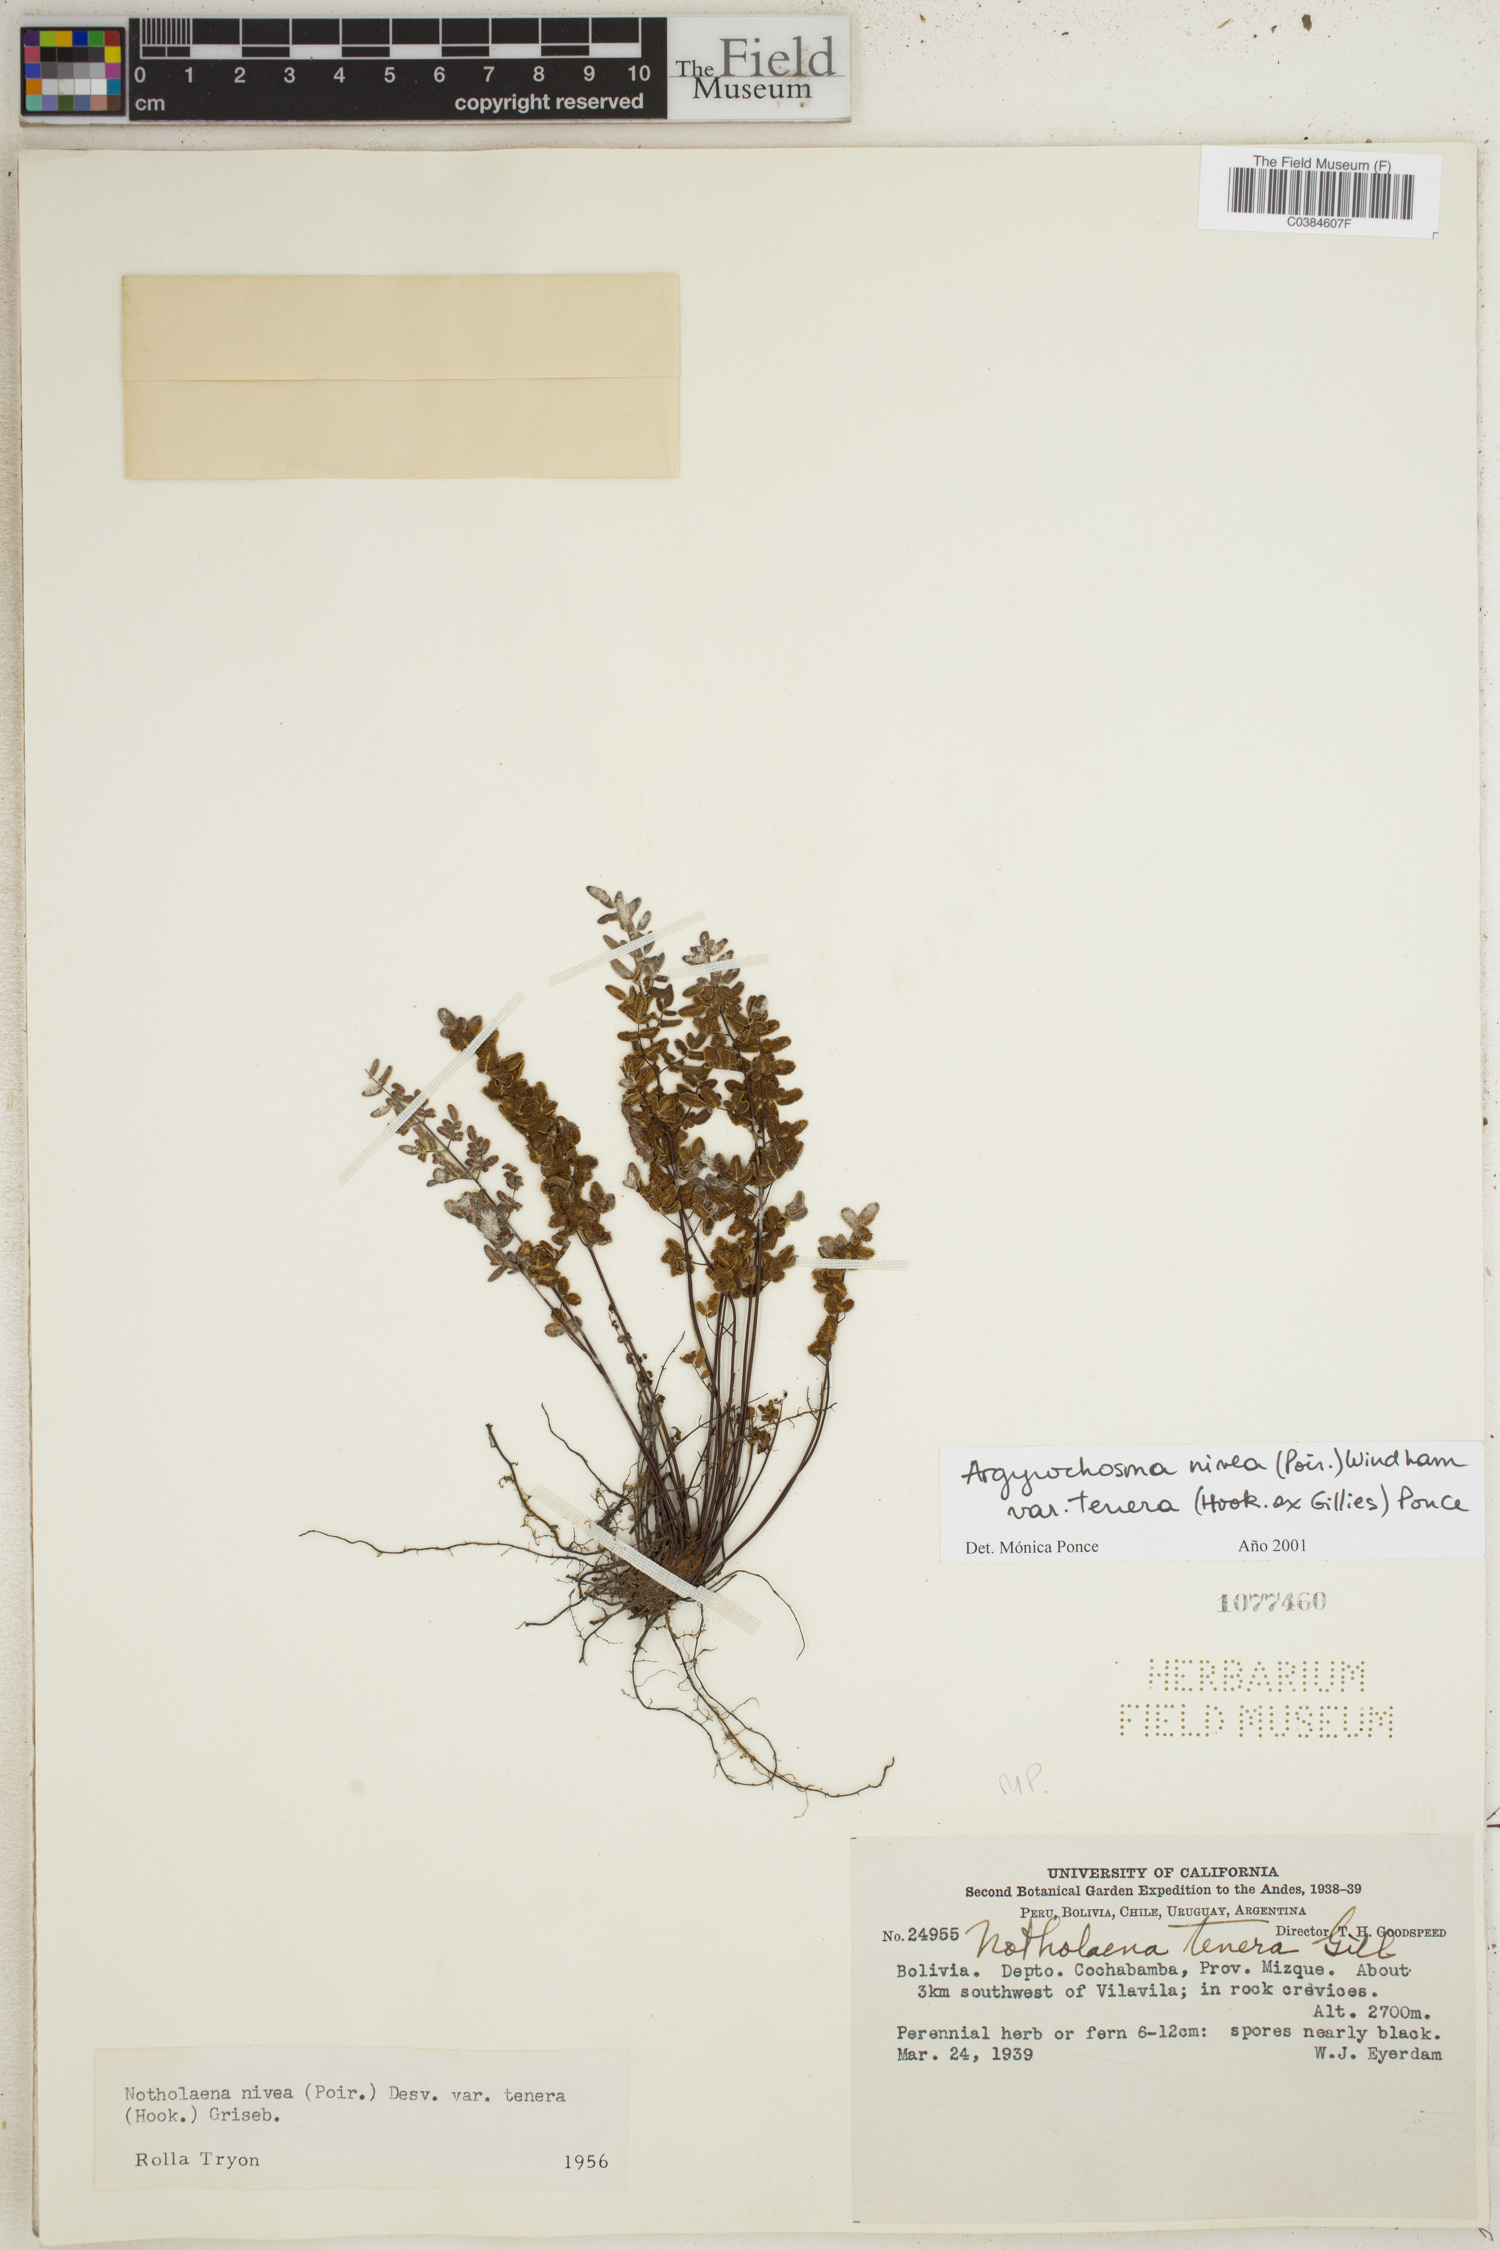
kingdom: Plantae
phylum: Tracheophyta
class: Polypodiopsida
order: Polypodiales
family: Pteridaceae
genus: Argyrochosma
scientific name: Argyrochosma nivea
